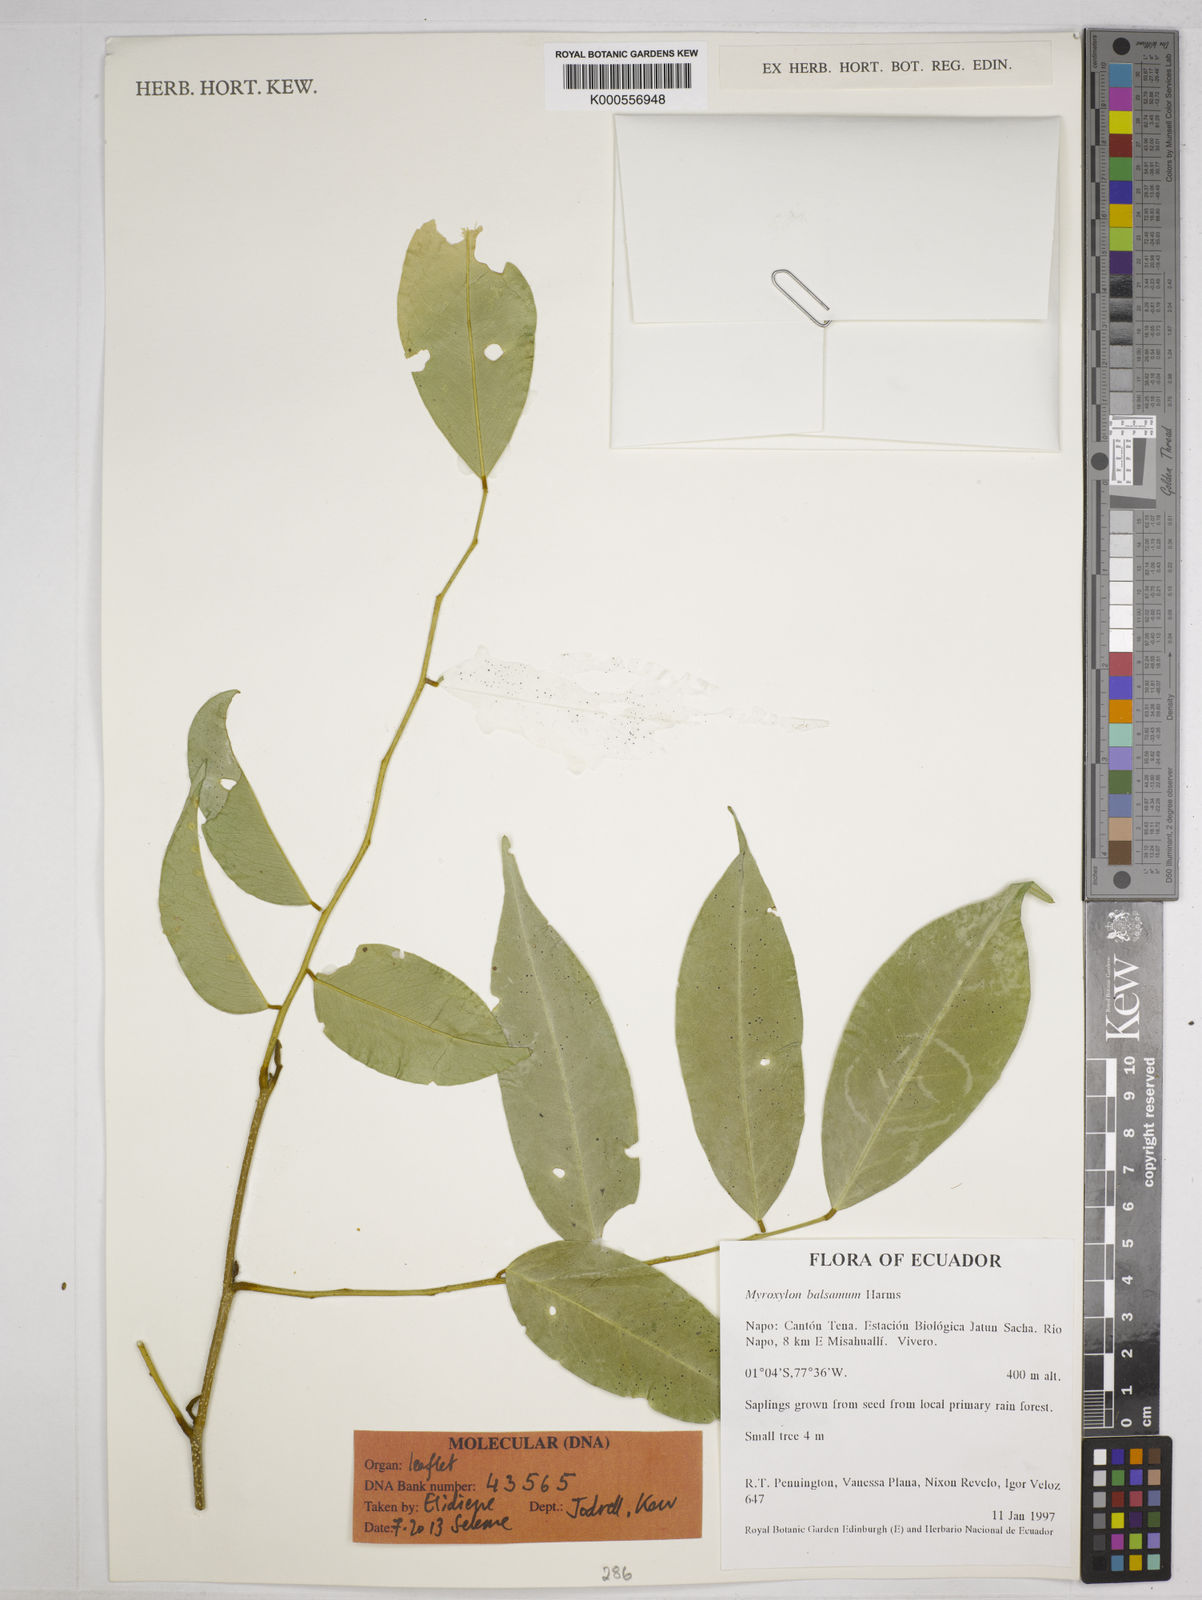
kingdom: Plantae
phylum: Tracheophyta
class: Magnoliopsida
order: Fabales
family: Fabaceae
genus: Myroxylon
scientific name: Myroxylon balsamum
